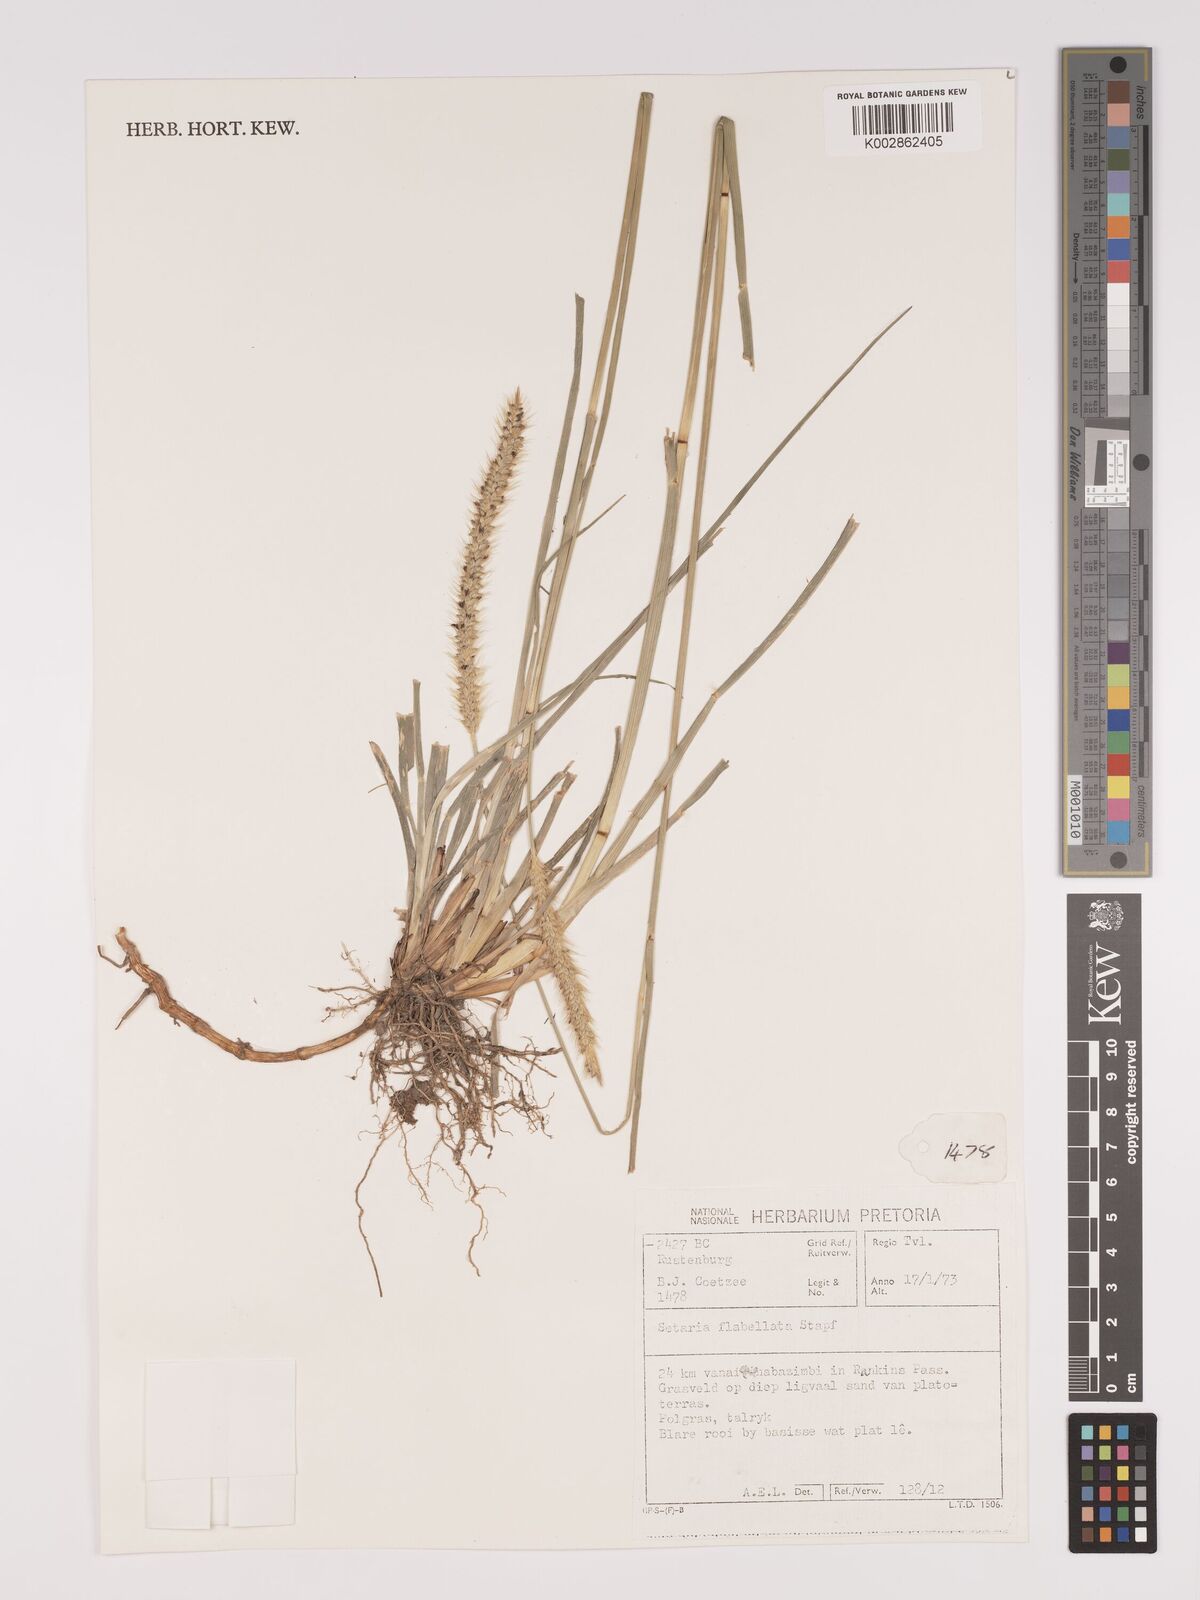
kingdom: Plantae
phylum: Tracheophyta
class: Liliopsida
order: Poales
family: Poaceae
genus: Setaria
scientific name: Setaria sphacelata
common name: African bristlegrass
